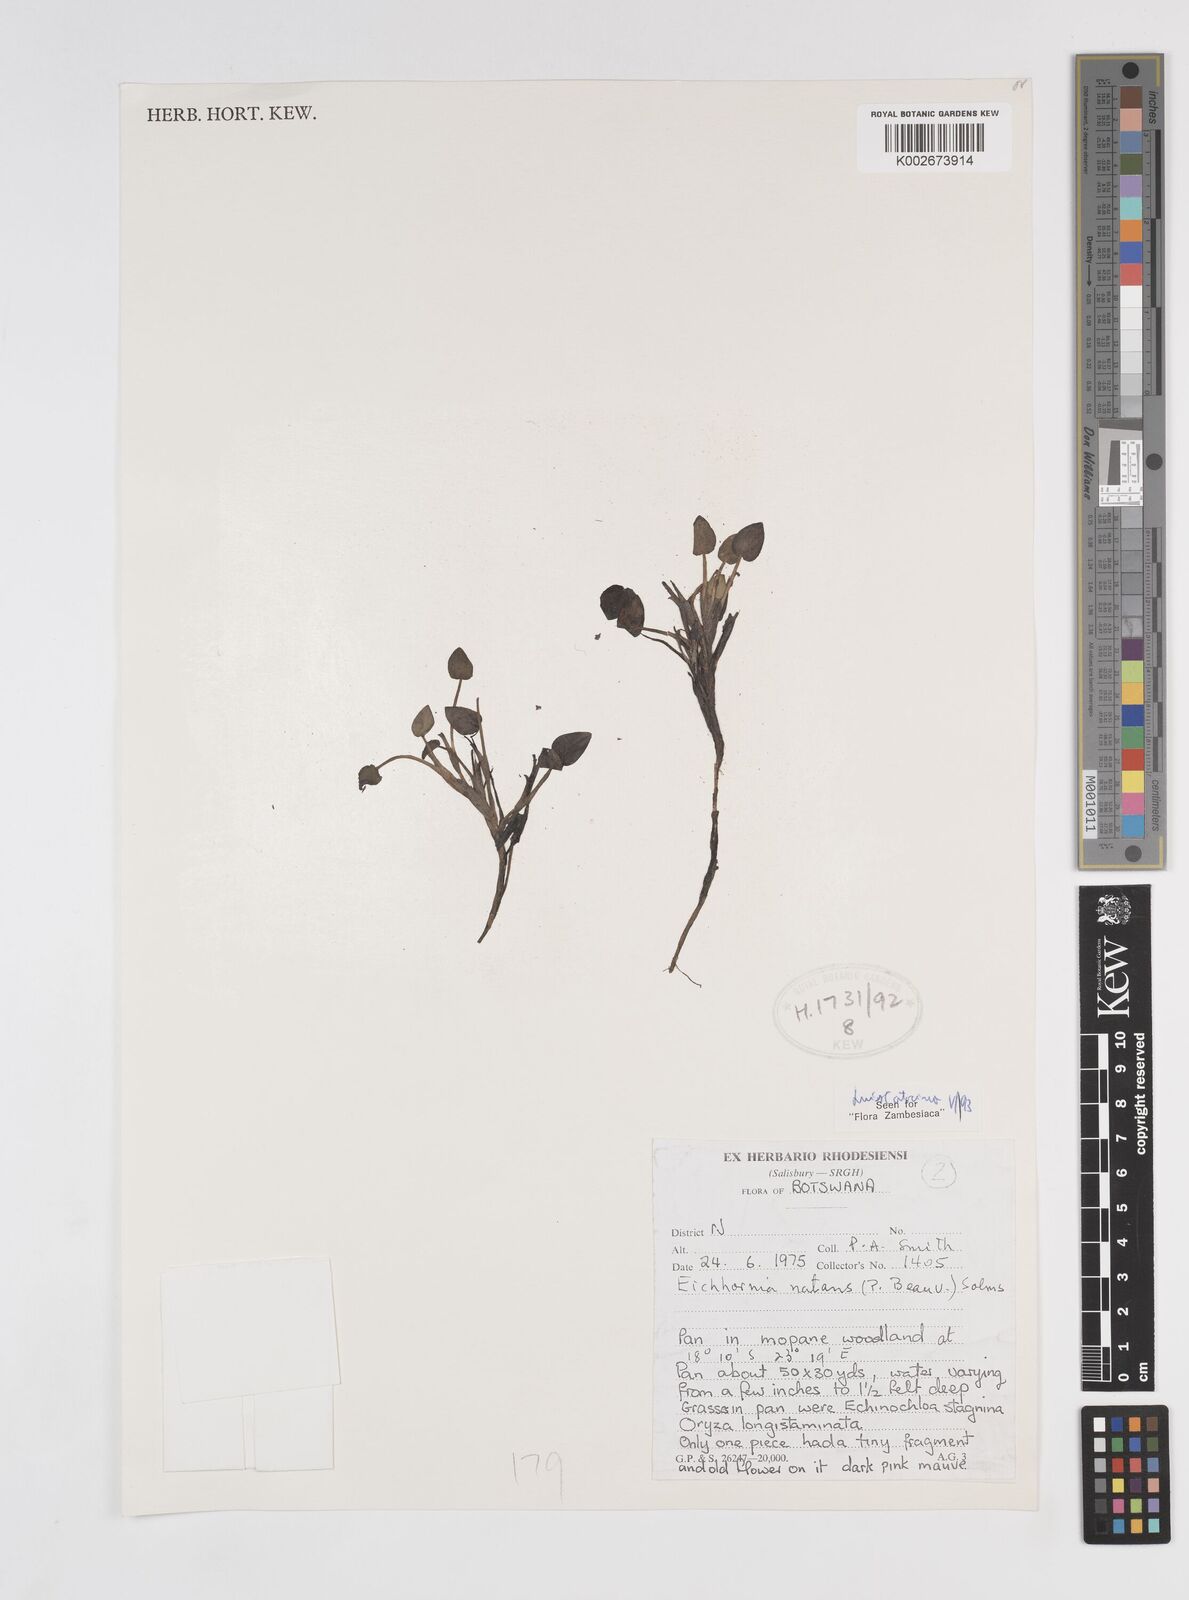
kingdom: Plantae
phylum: Tracheophyta
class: Liliopsida
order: Commelinales
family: Pontederiaceae
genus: Pontederia
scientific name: Pontederia natans
